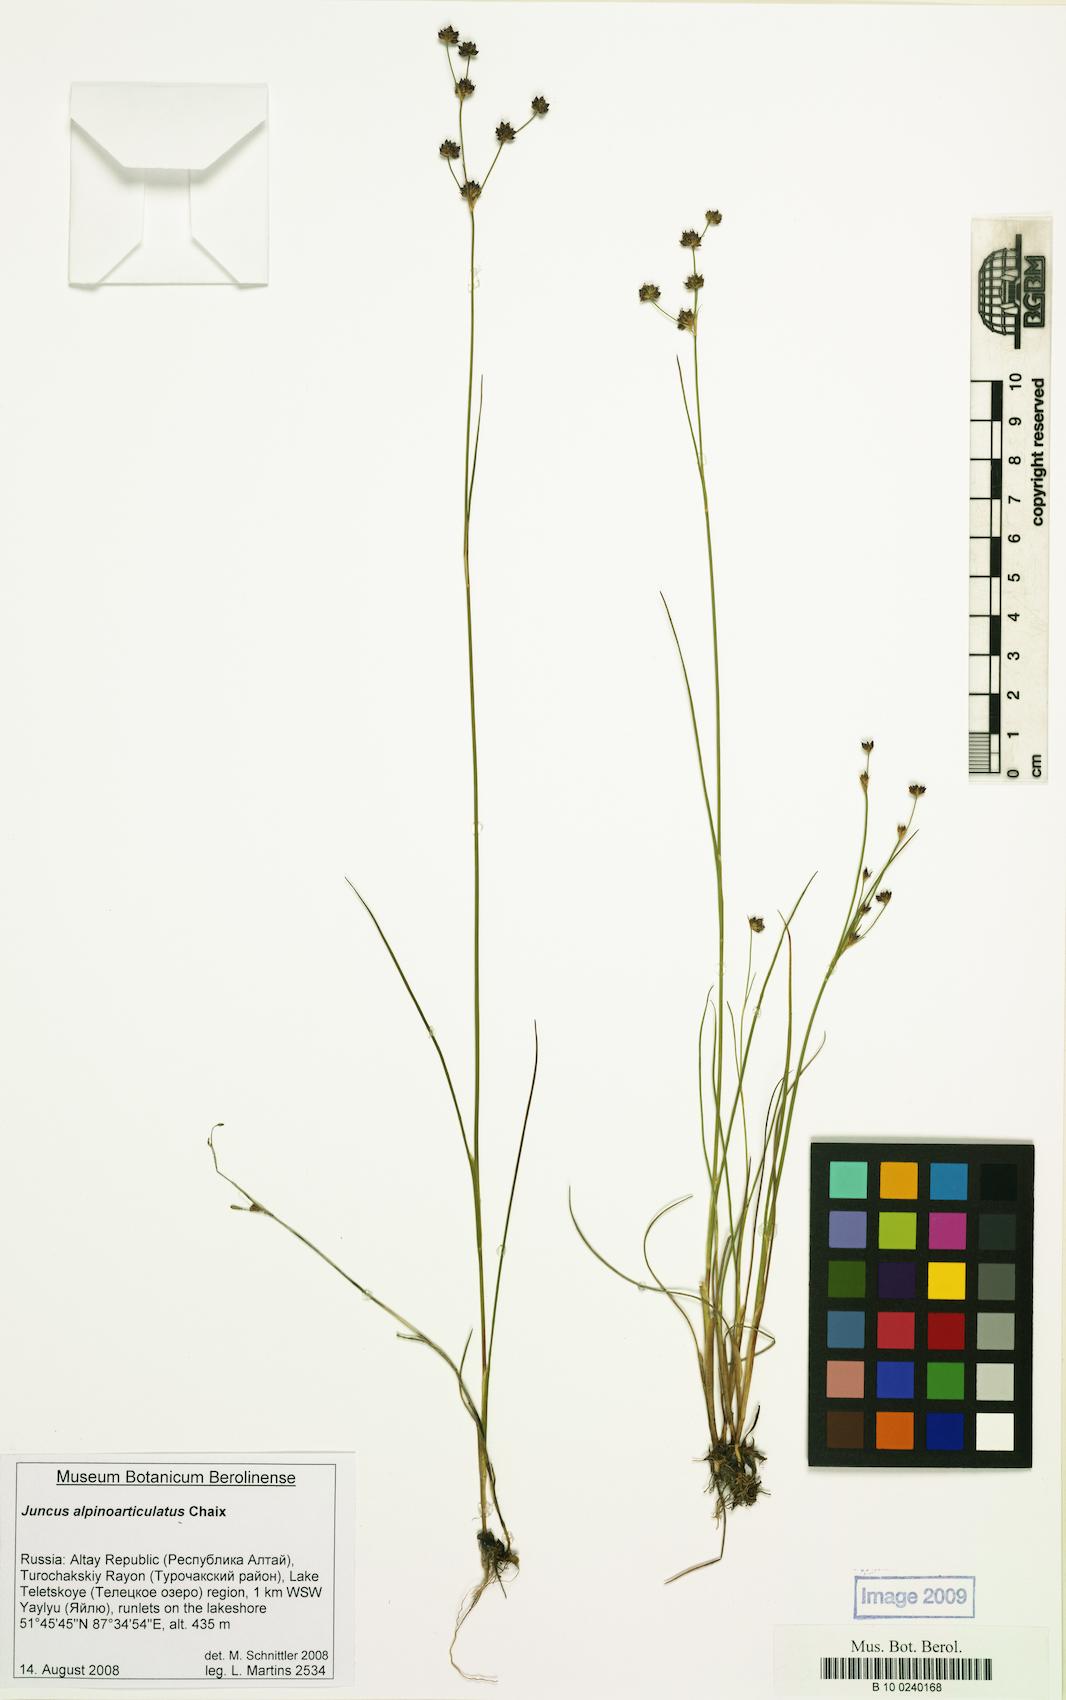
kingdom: Plantae
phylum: Tracheophyta
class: Liliopsida
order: Poales
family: Juncaceae
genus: Juncus
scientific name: Juncus alpinoarticulatus
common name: Alpine rush
